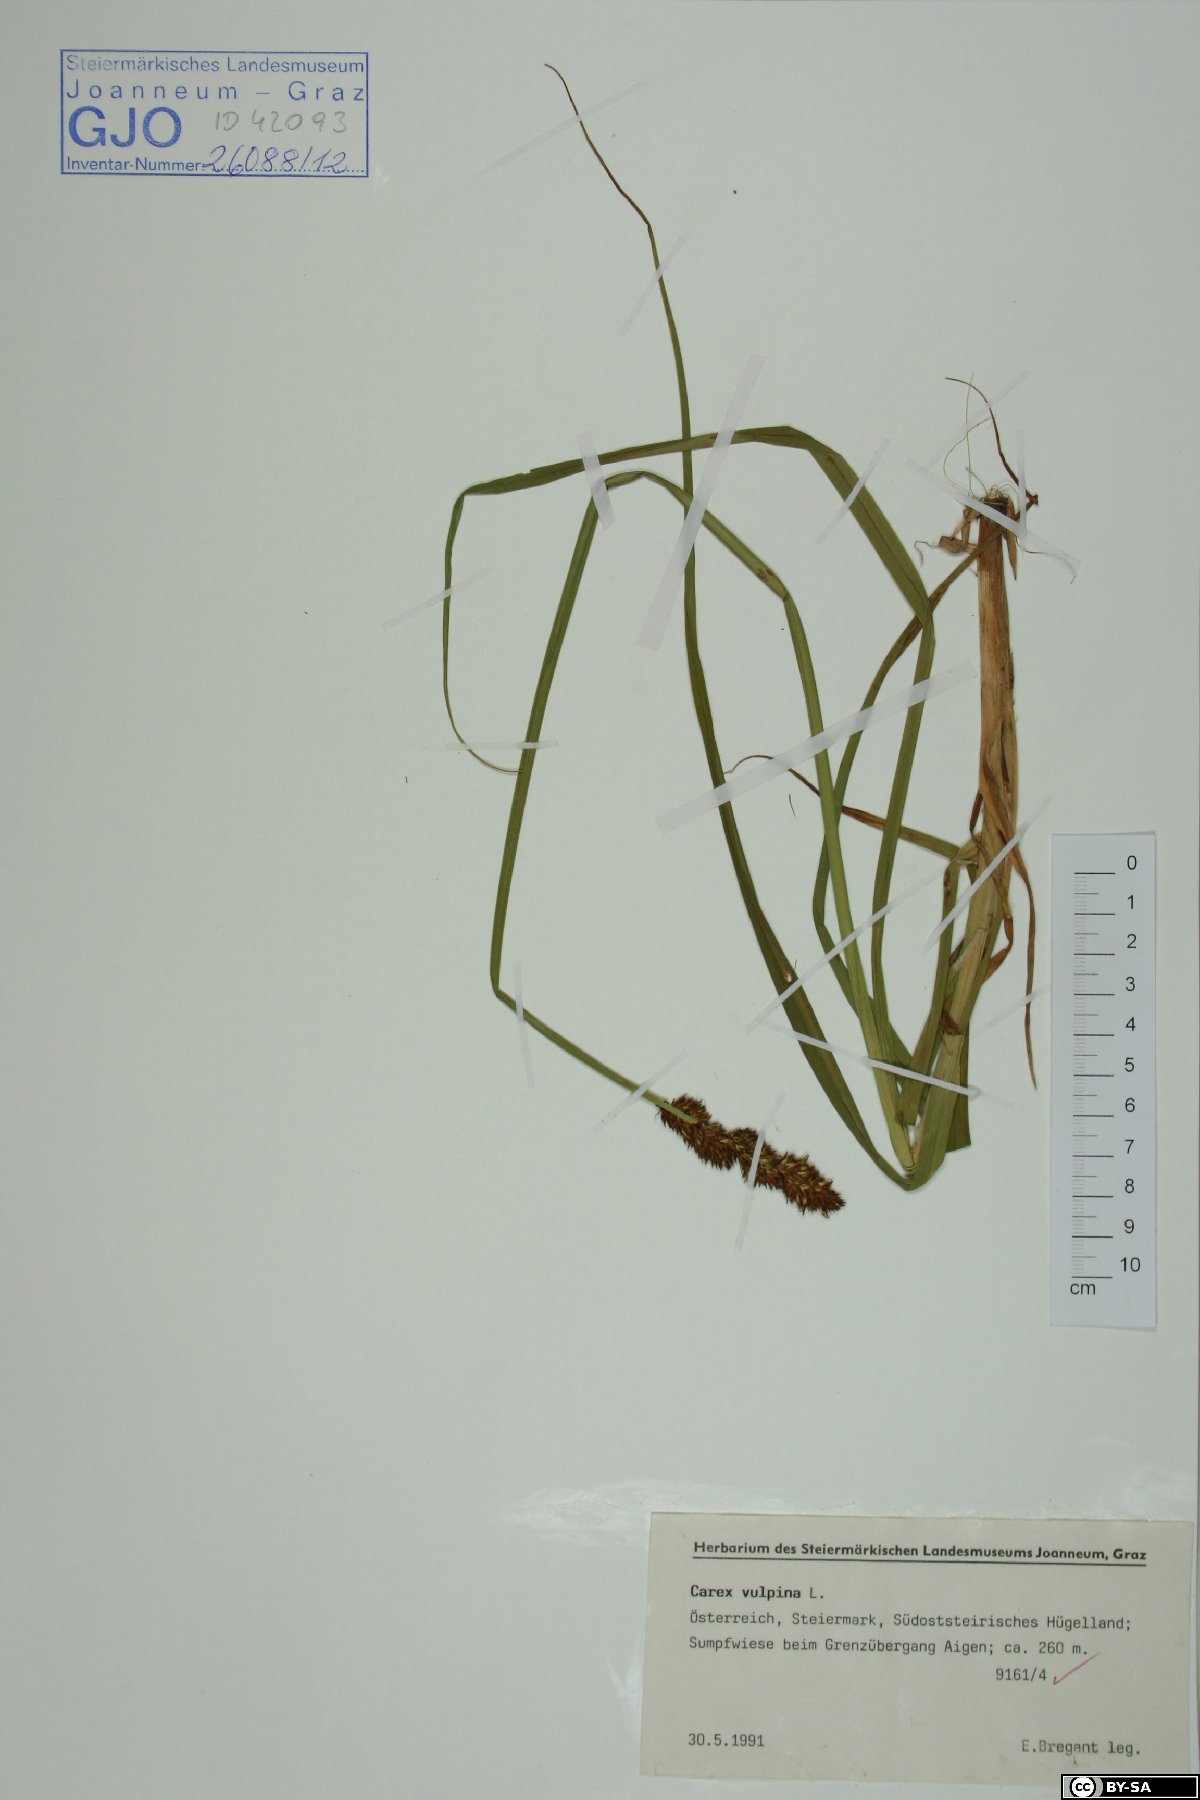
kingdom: Plantae
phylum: Tracheophyta
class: Liliopsida
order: Poales
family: Cyperaceae
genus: Carex
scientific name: Carex vulpina
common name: True fox-sedge
